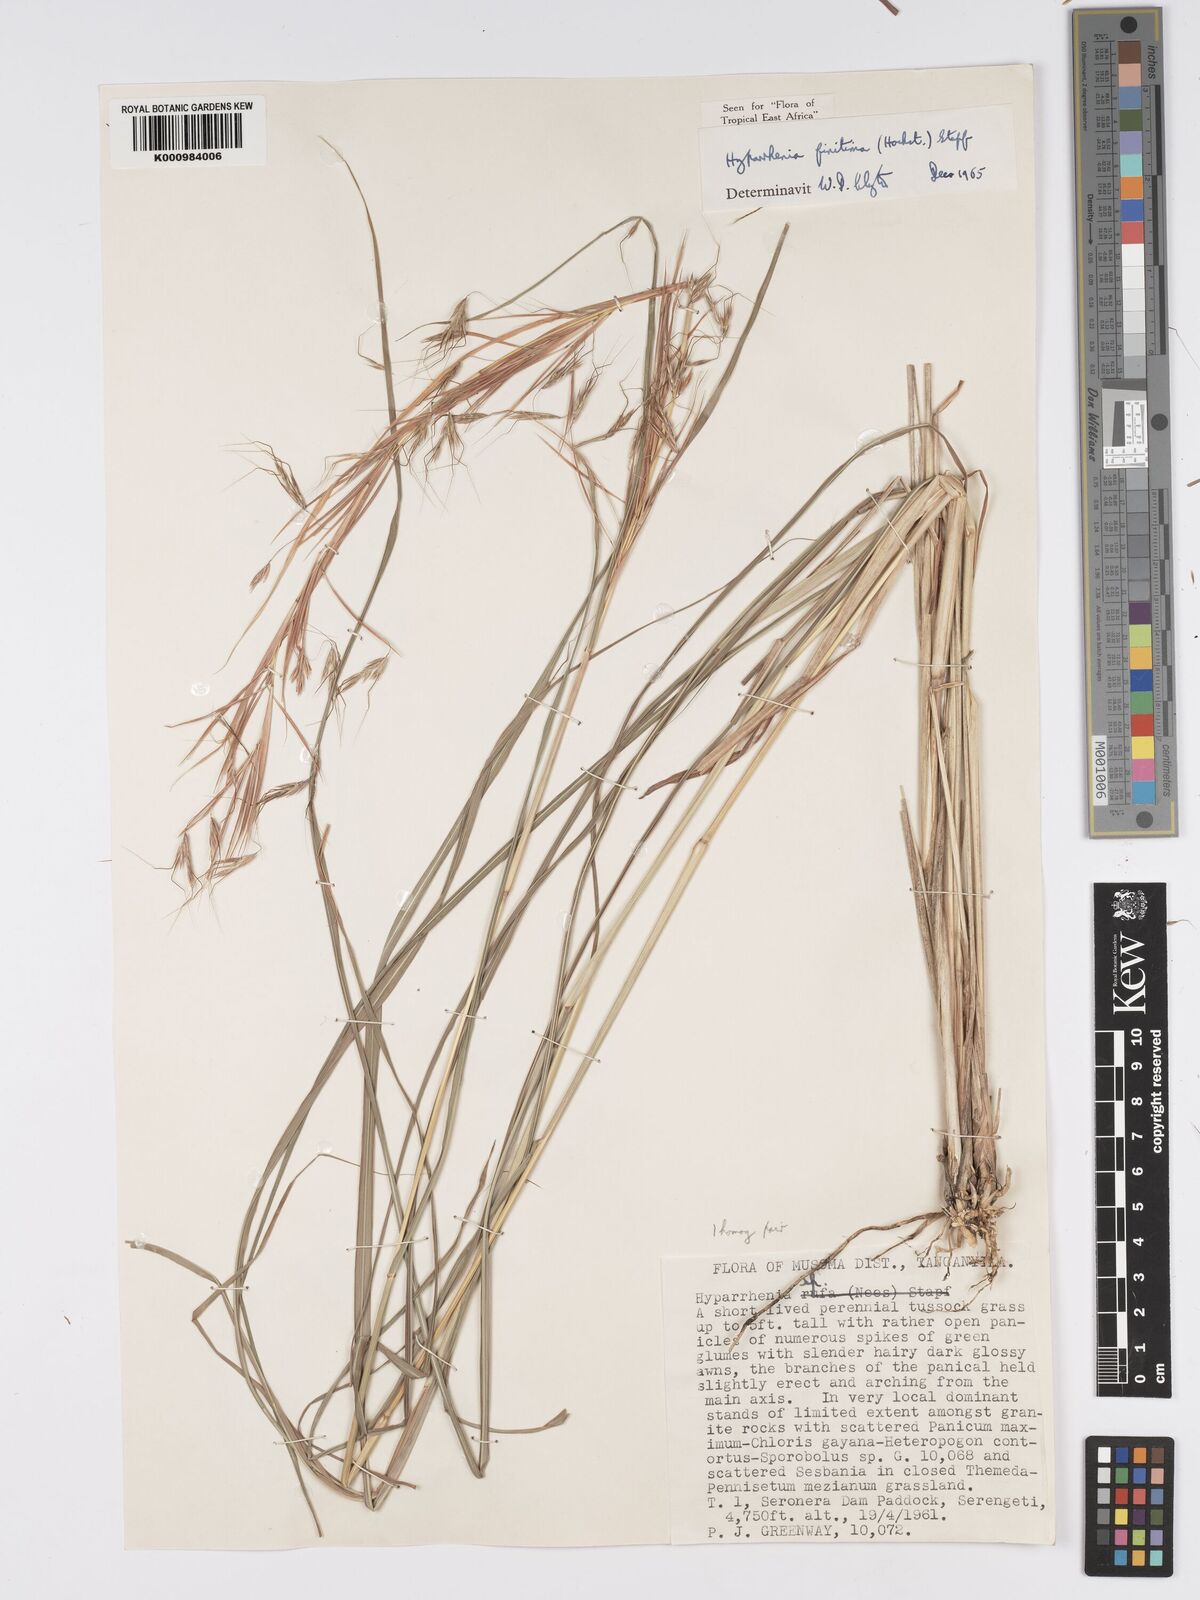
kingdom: Plantae
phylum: Tracheophyta
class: Liliopsida
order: Poales
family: Poaceae
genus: Hyparrhenia
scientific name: Hyparrhenia finitima
